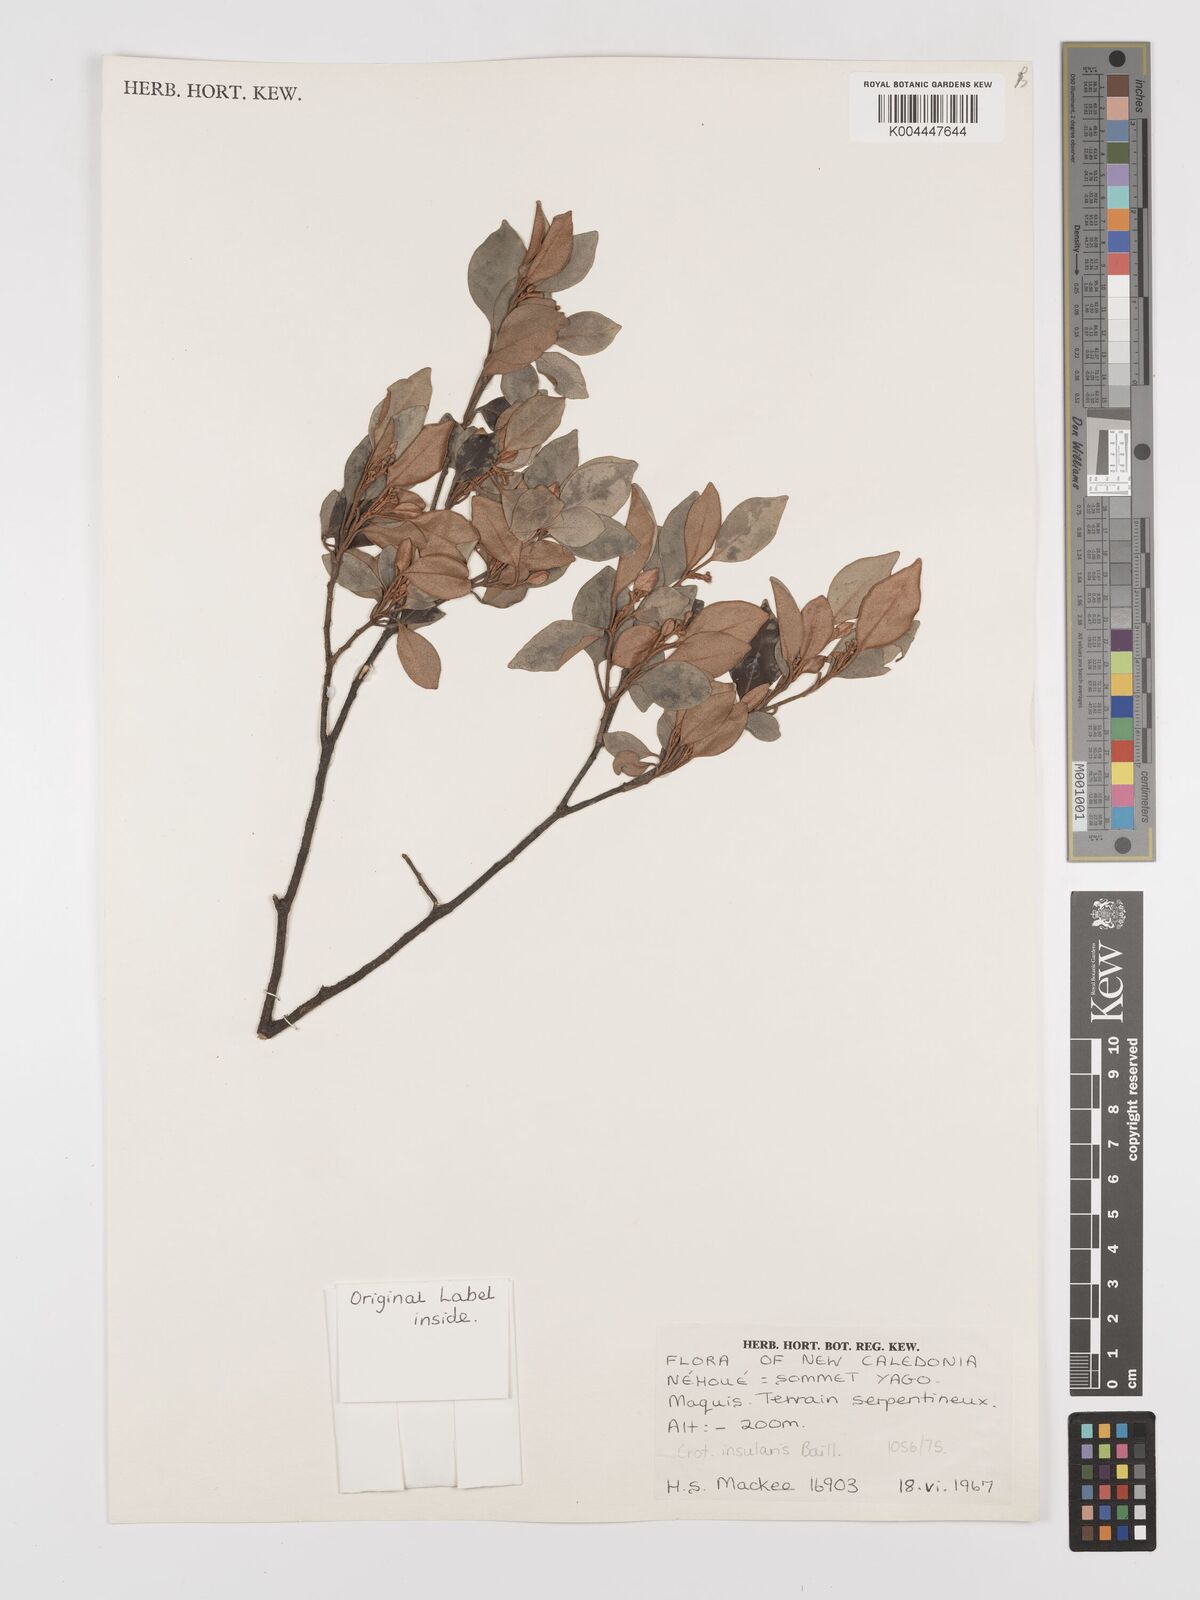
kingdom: Plantae
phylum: Tracheophyta
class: Magnoliopsida
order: Malpighiales
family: Euphorbiaceae
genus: Croton
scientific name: Croton insularis
